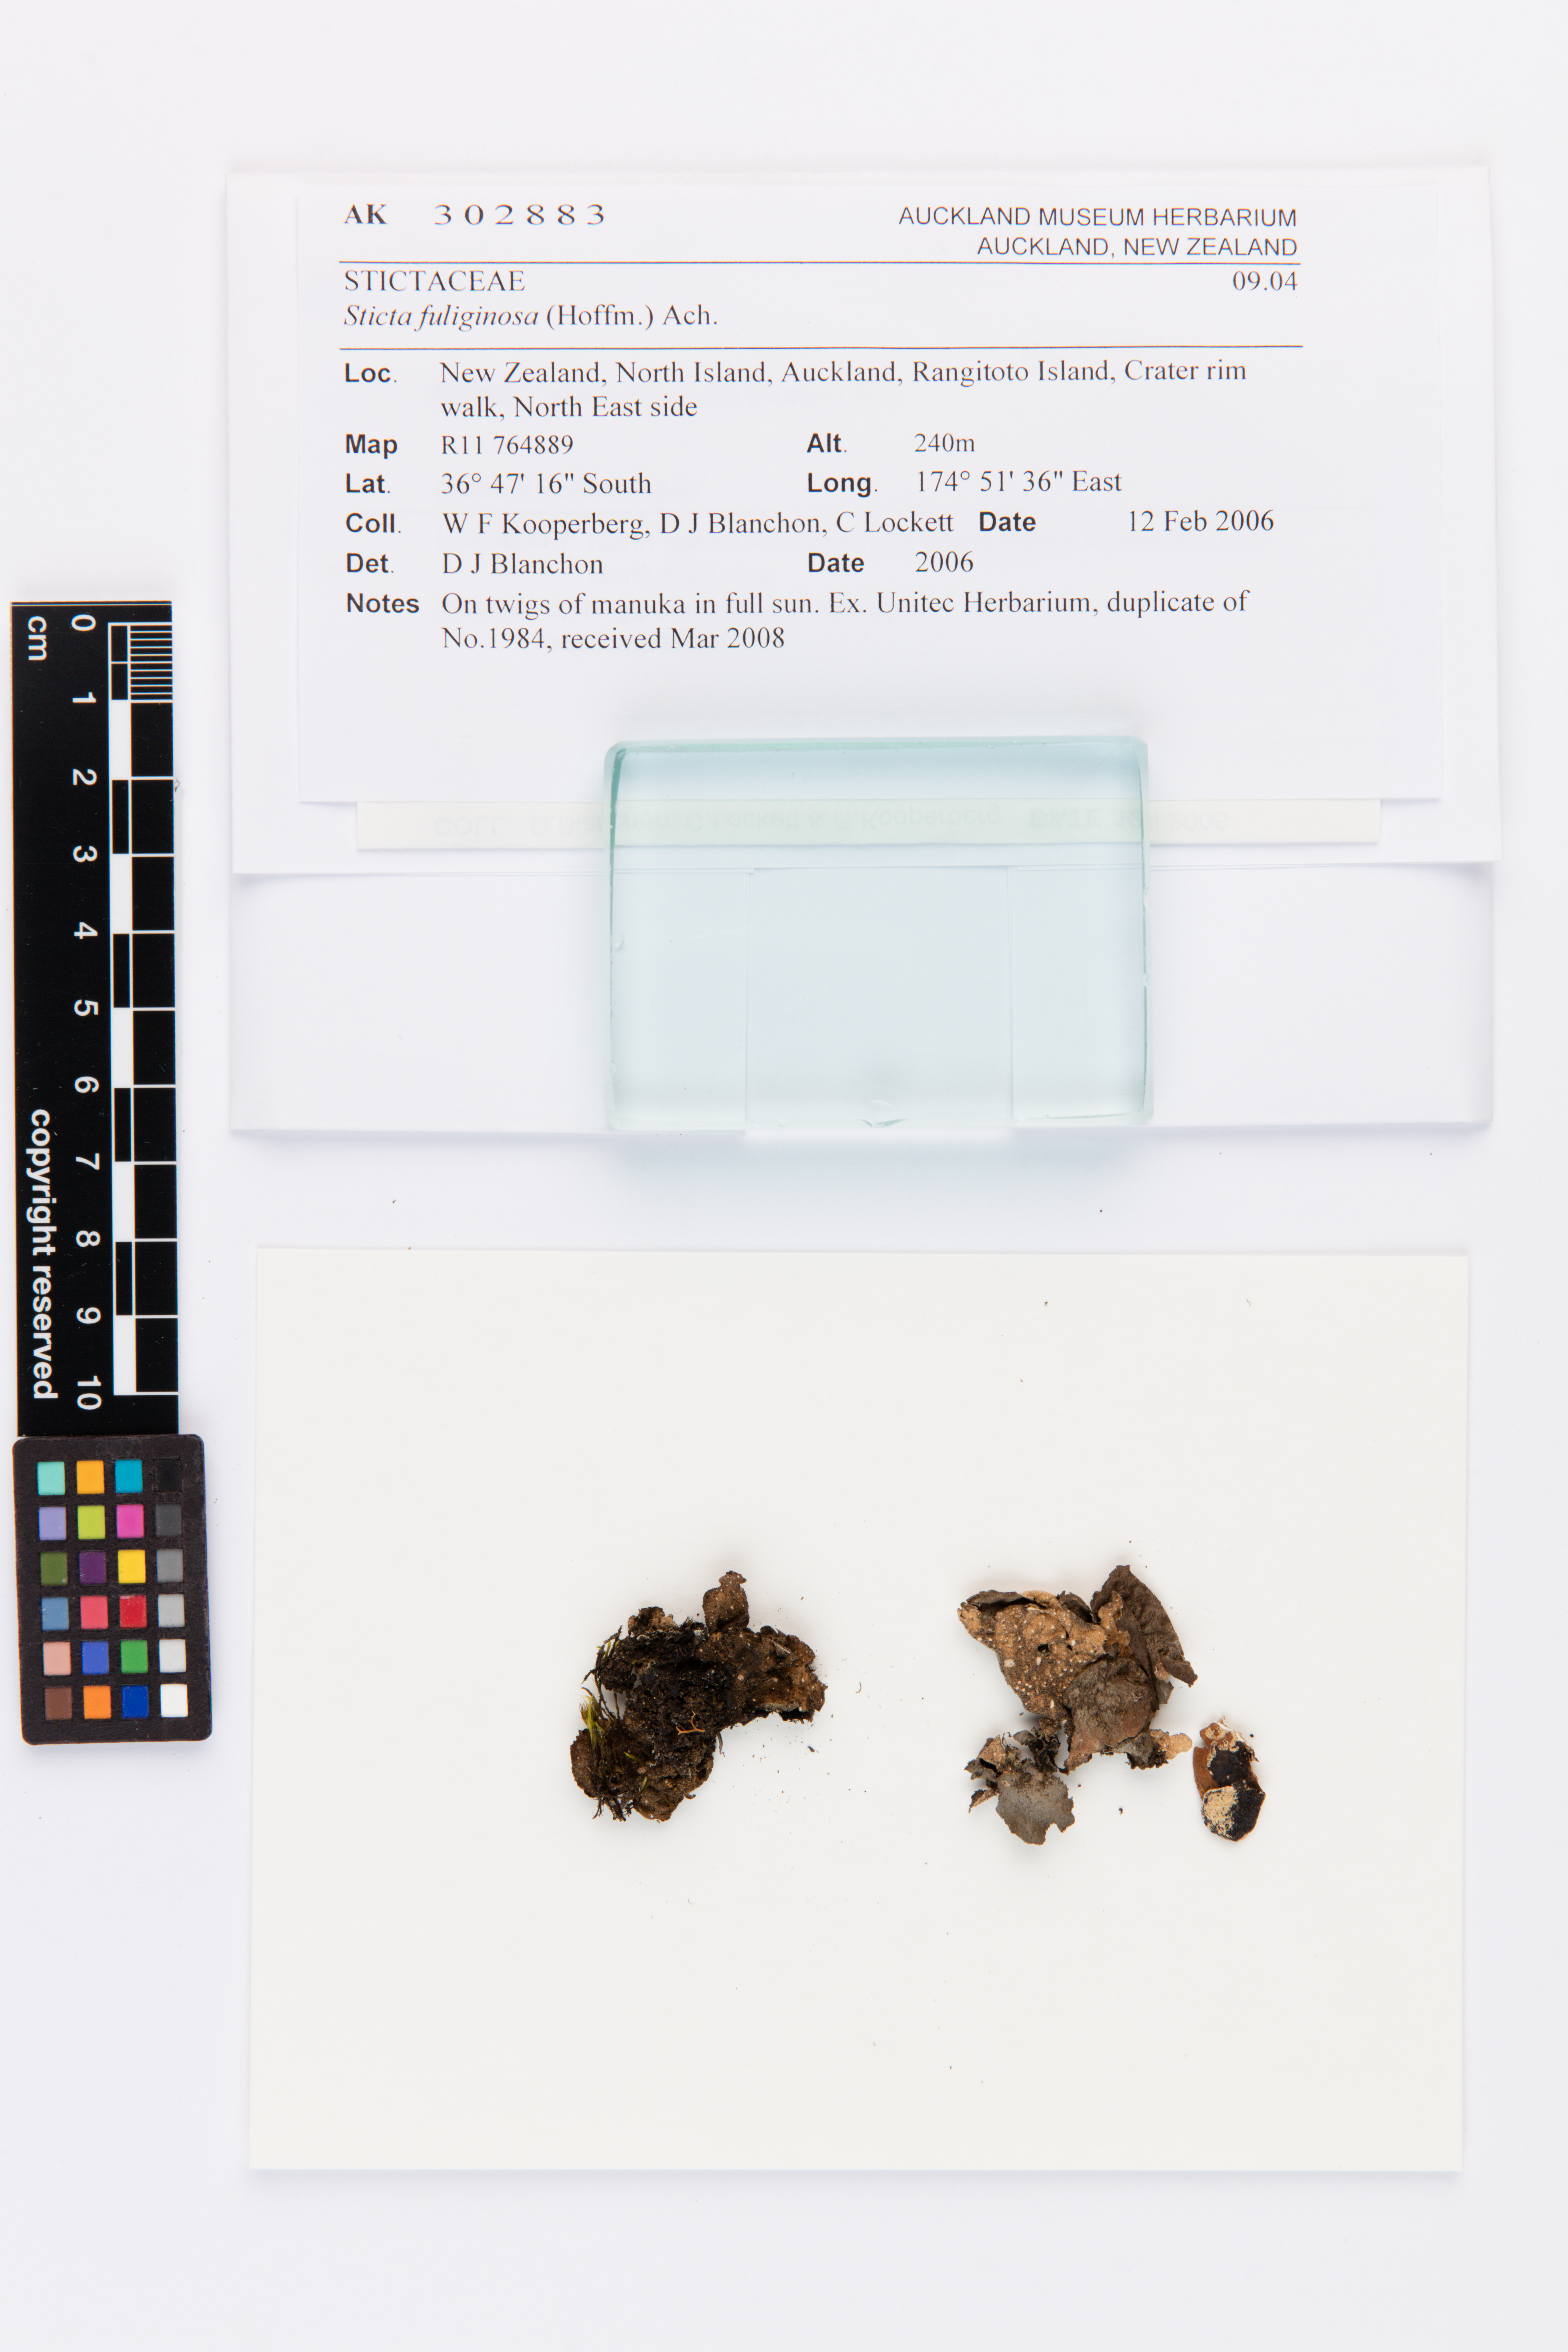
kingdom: Fungi
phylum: Ascomycota
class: Lecanoromycetes
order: Peltigerales
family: Lobariaceae
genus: Sticta
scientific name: Sticta fuliginosa
